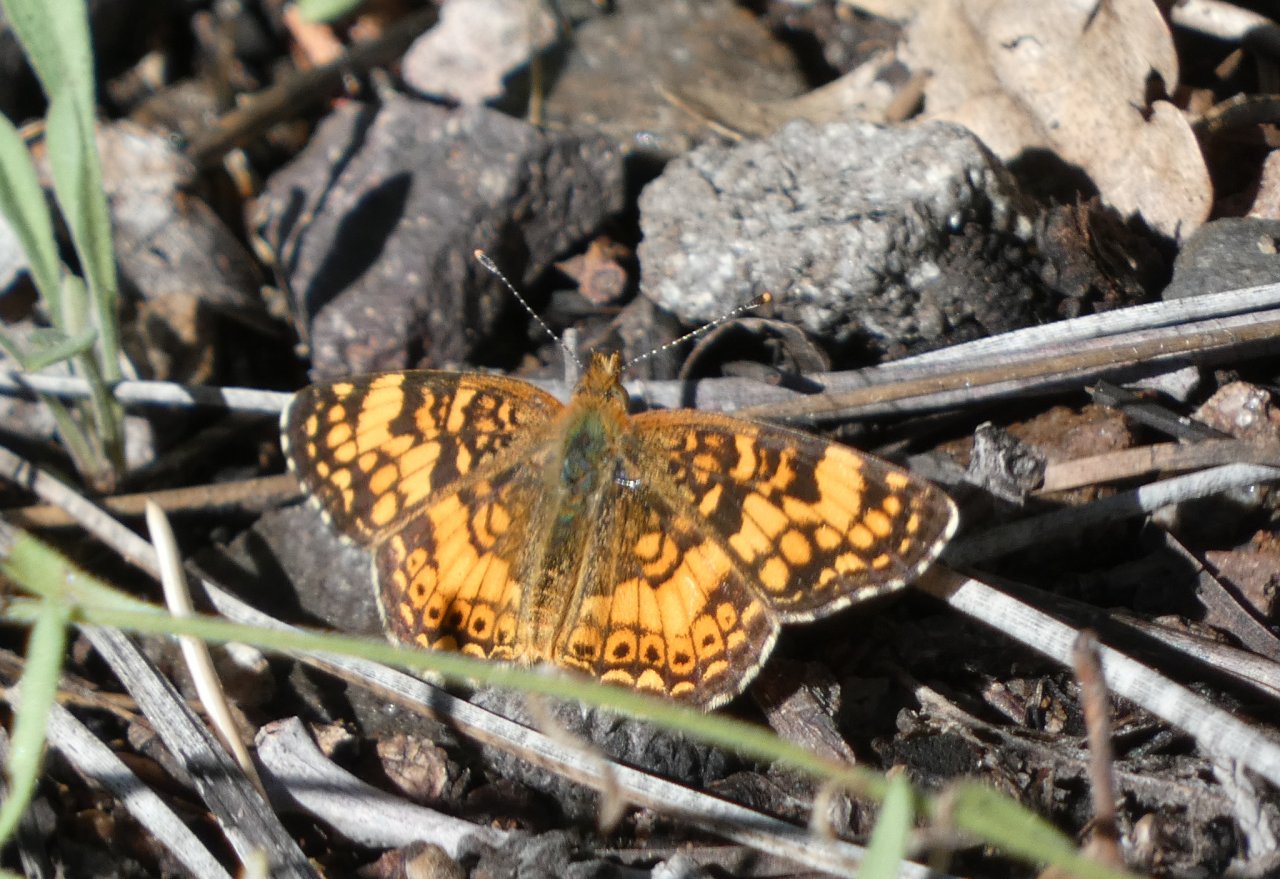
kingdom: Animalia
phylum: Arthropoda
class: Insecta
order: Lepidoptera
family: Nymphalidae
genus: Eresia
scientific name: Eresia aveyrona
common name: Mylitta Crescent
